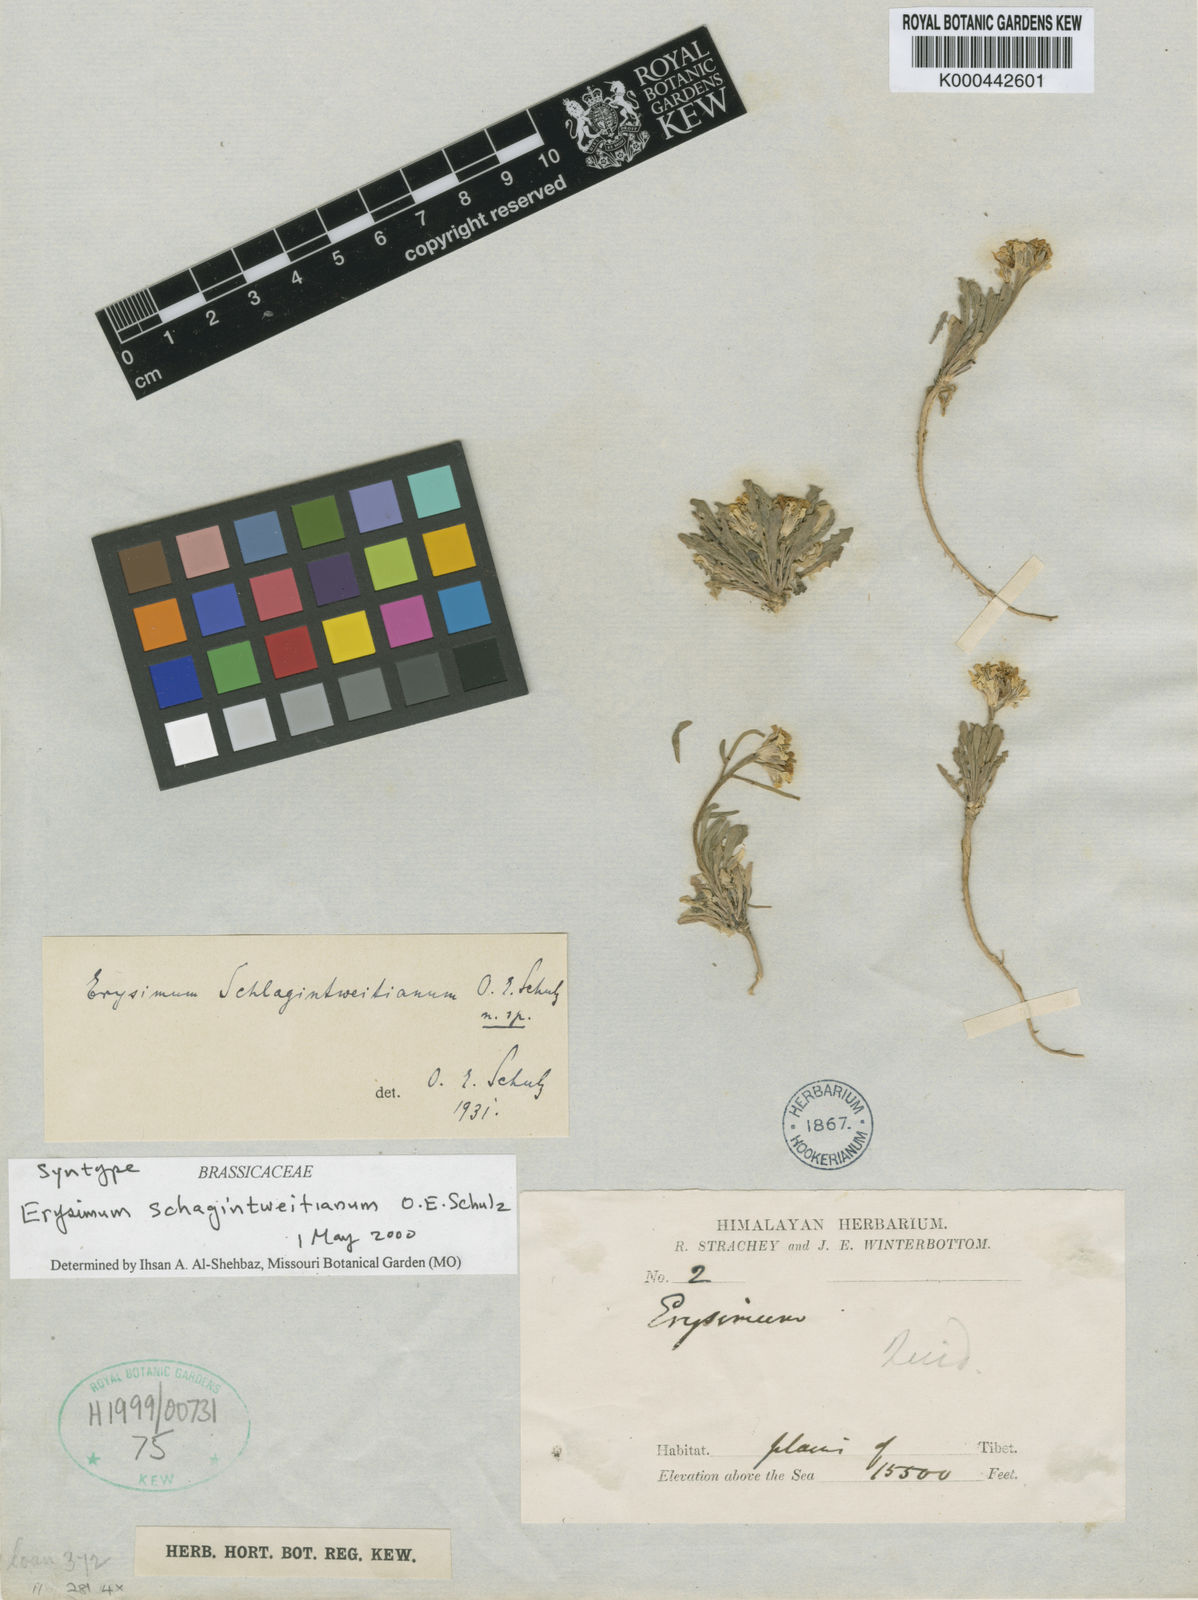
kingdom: Plantae
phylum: Tracheophyta
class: Magnoliopsida
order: Brassicales
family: Brassicaceae
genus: Erysimum
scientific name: Erysimum schlagintweitianum
